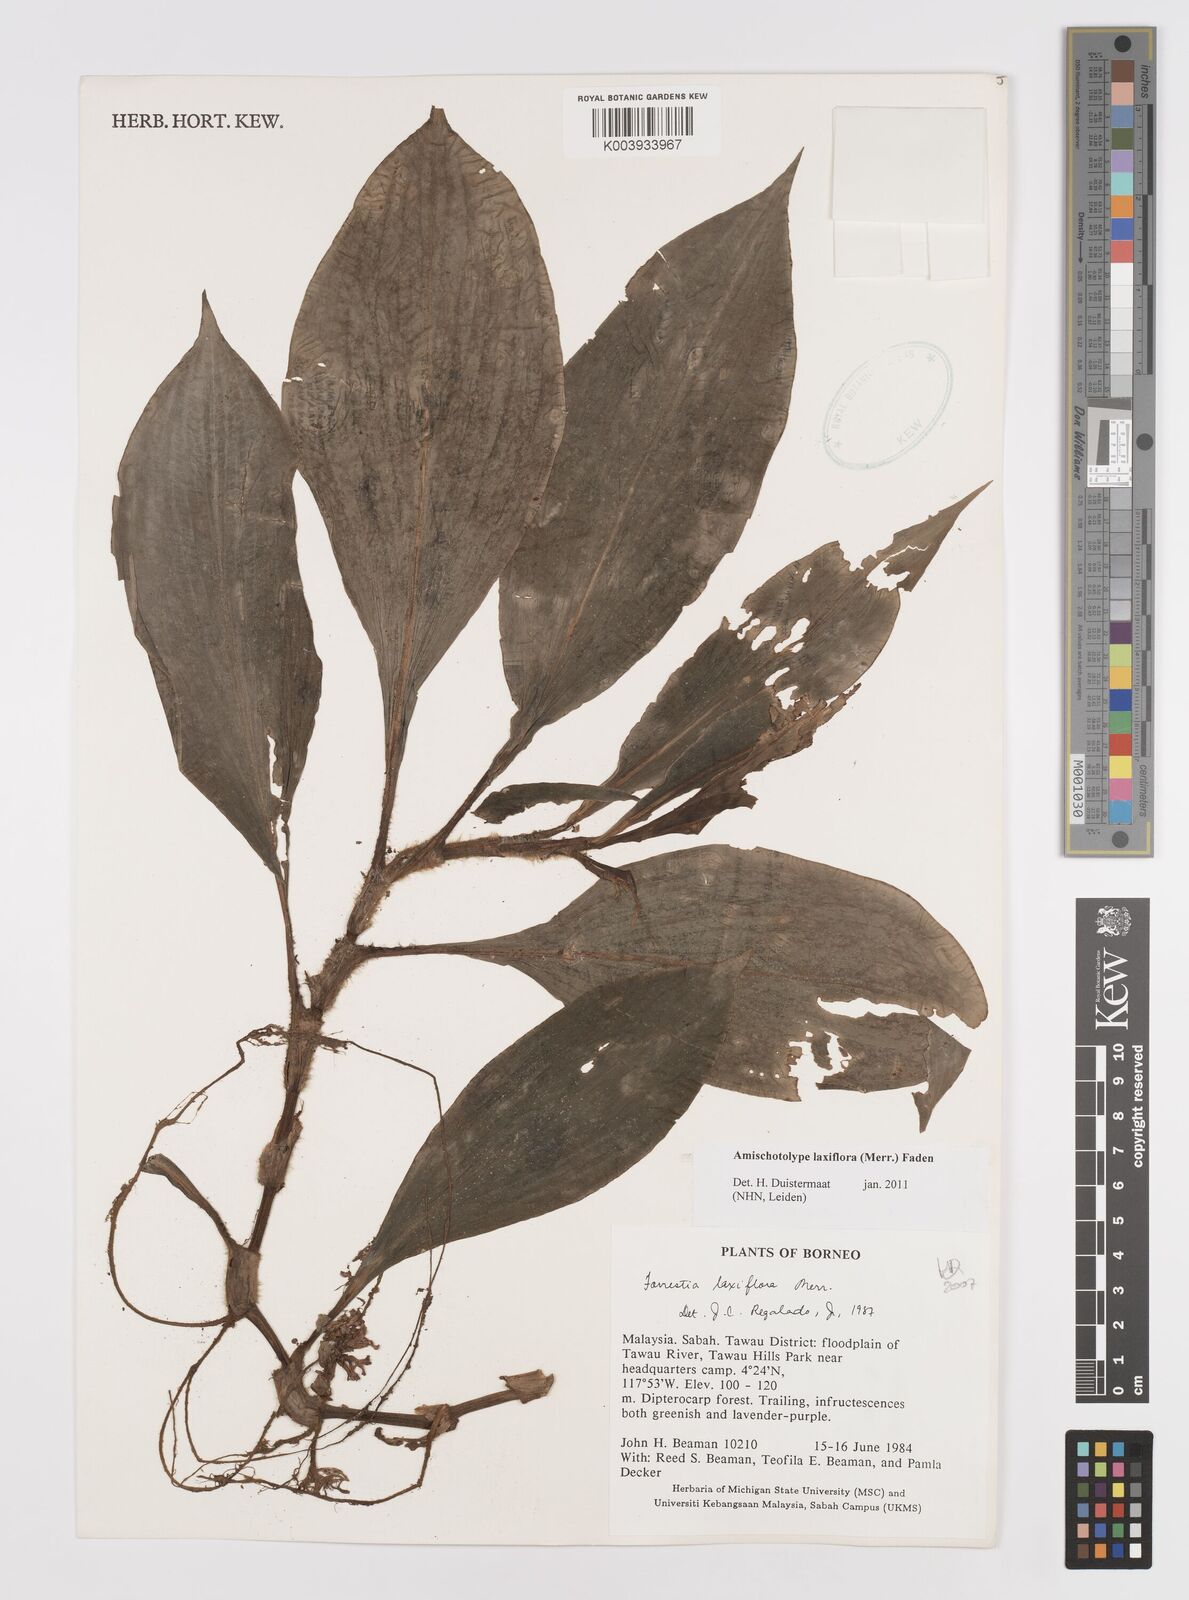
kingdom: Plantae
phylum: Tracheophyta
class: Liliopsida
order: Commelinales
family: Commelinaceae
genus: Amischotolype
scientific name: Amischotolype laxiflora
